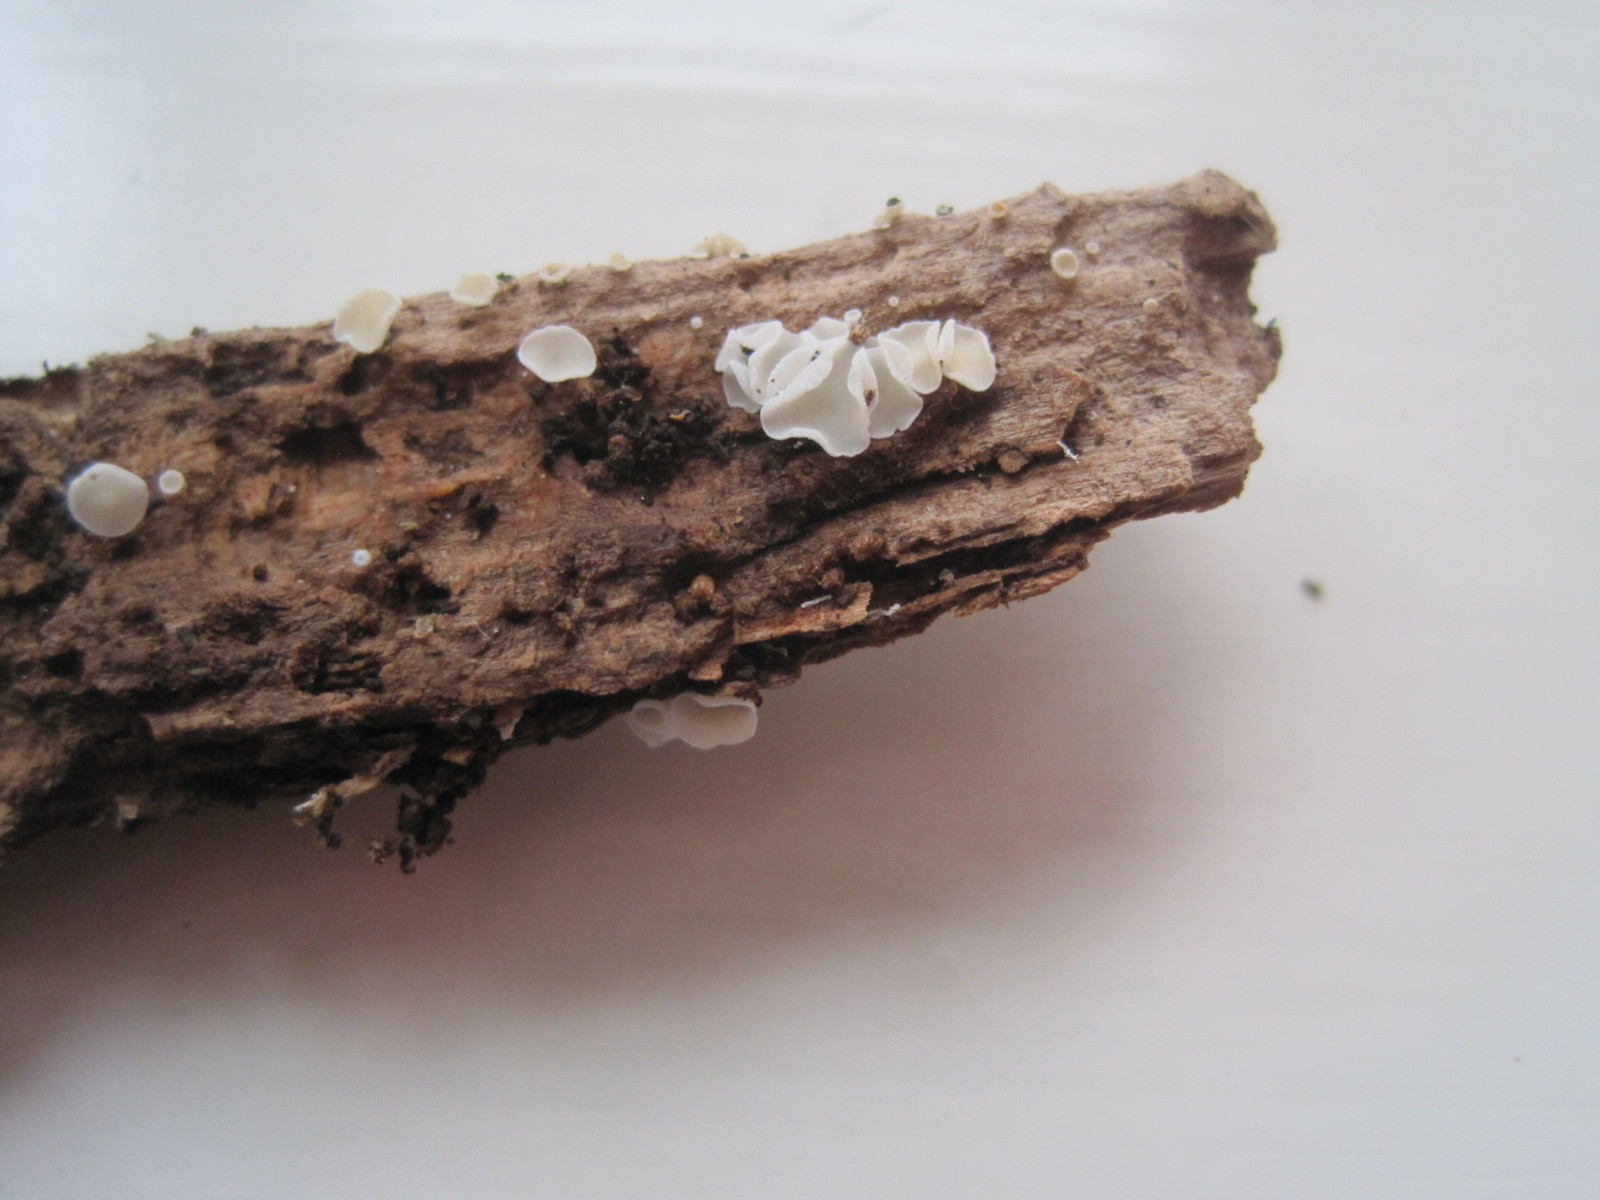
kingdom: Fungi
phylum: Ascomycota
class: Leotiomycetes
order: Helotiales
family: Lachnaceae
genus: Lachnum
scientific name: Lachnum impudicum
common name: vinter-frynseskive
